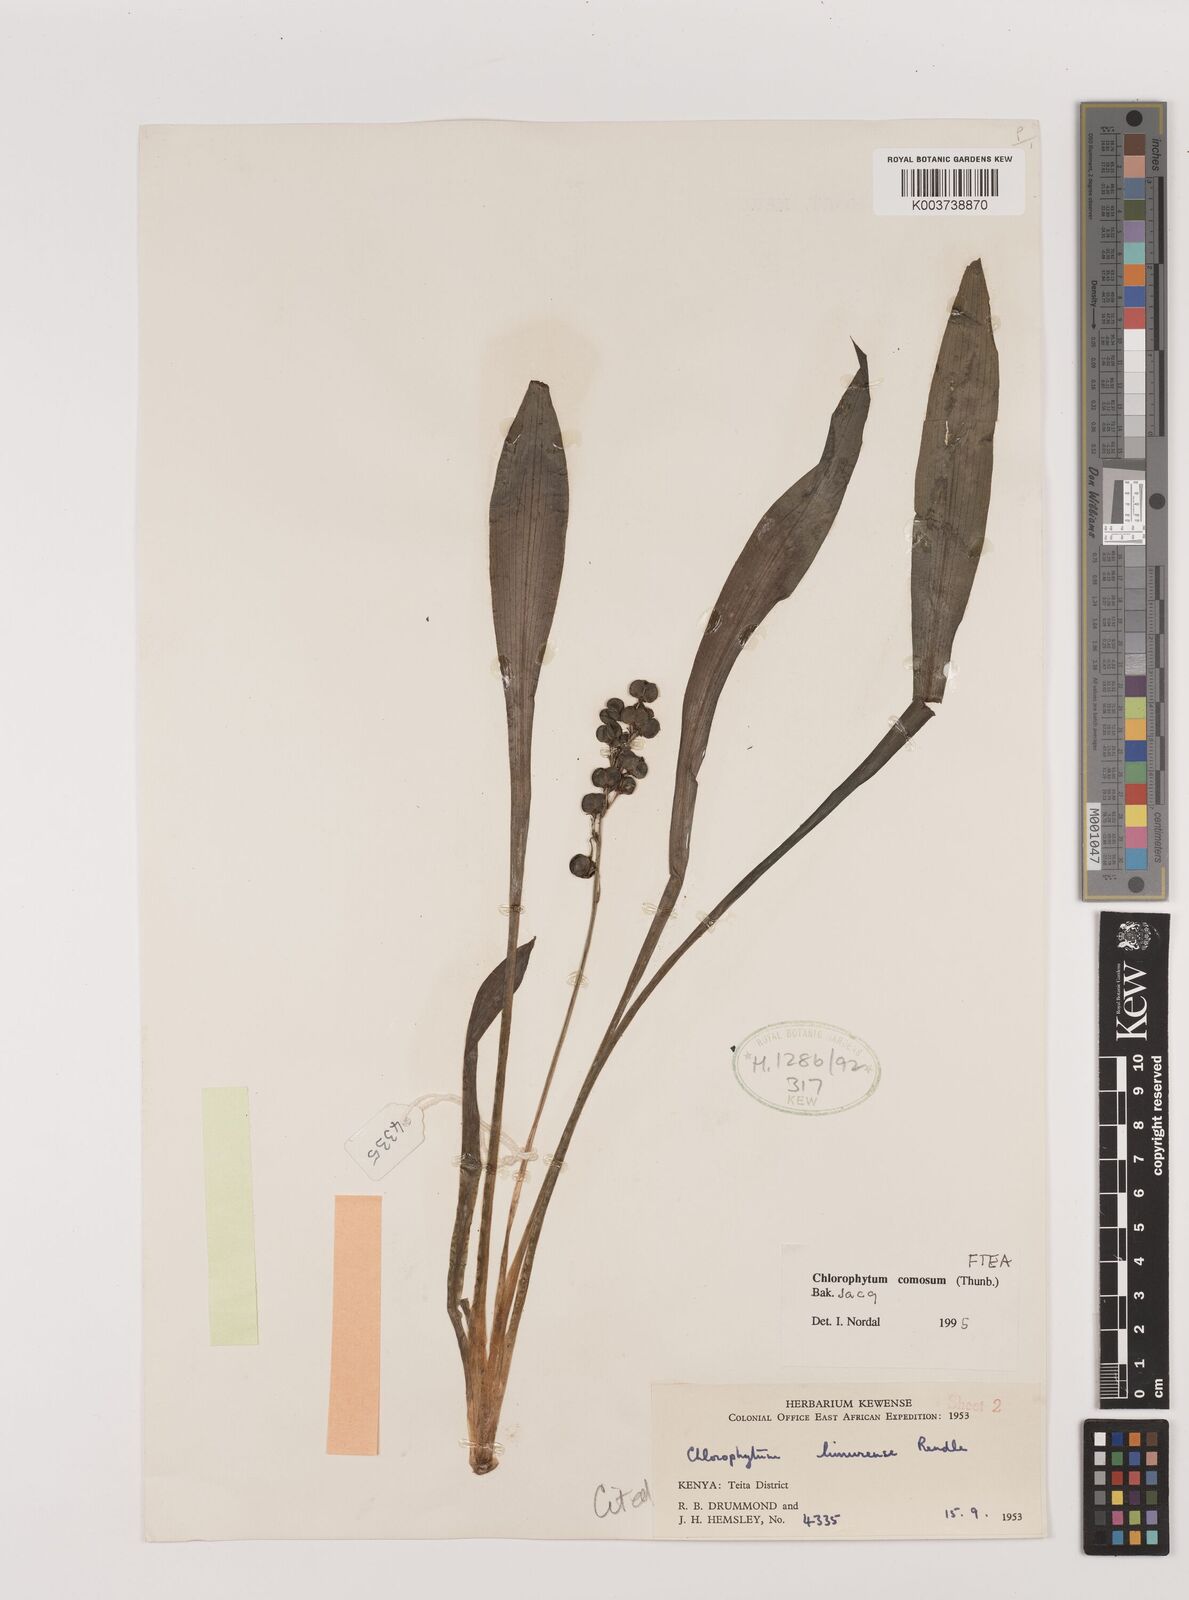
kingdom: Plantae
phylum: Tracheophyta
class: Liliopsida
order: Asparagales
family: Asparagaceae
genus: Chlorophytum
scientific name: Chlorophytum comosum
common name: Spider plant
